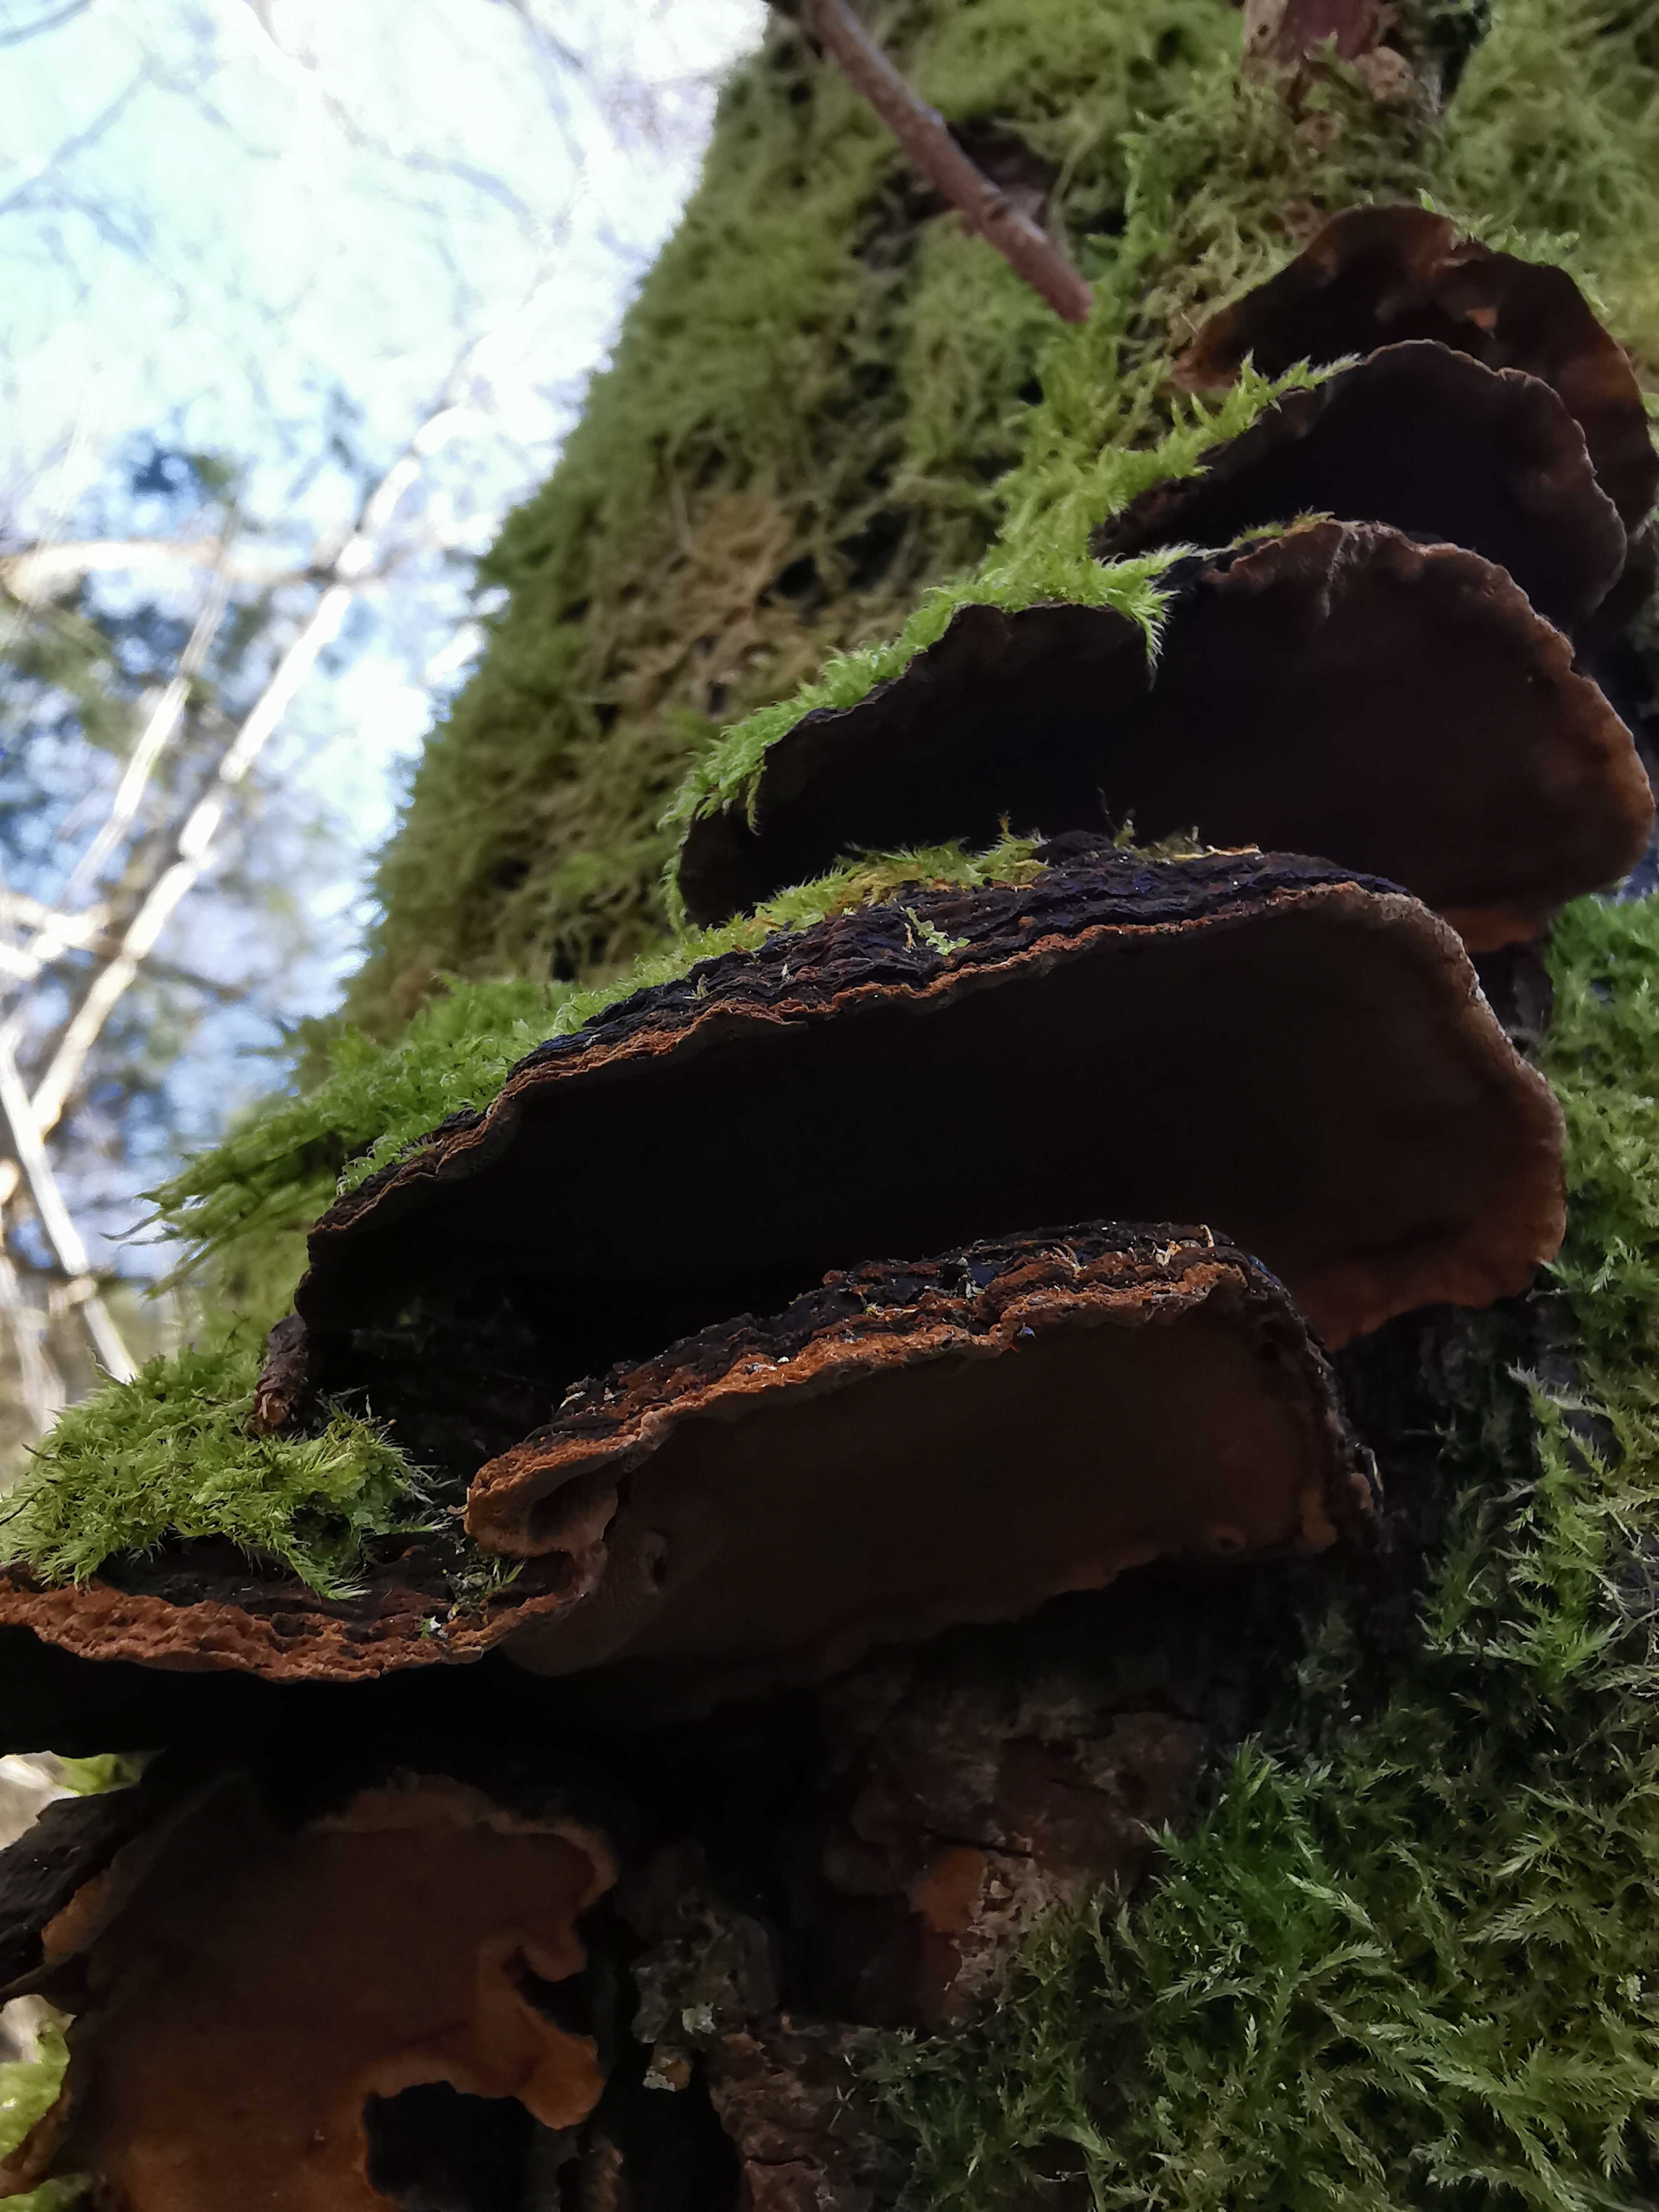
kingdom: Fungi
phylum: Basidiomycota
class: Agaricomycetes
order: Hymenochaetales
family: Hymenochaetaceae
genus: Phellinopsis
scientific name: Phellinopsis conchata
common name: pile-ildporesvamp
